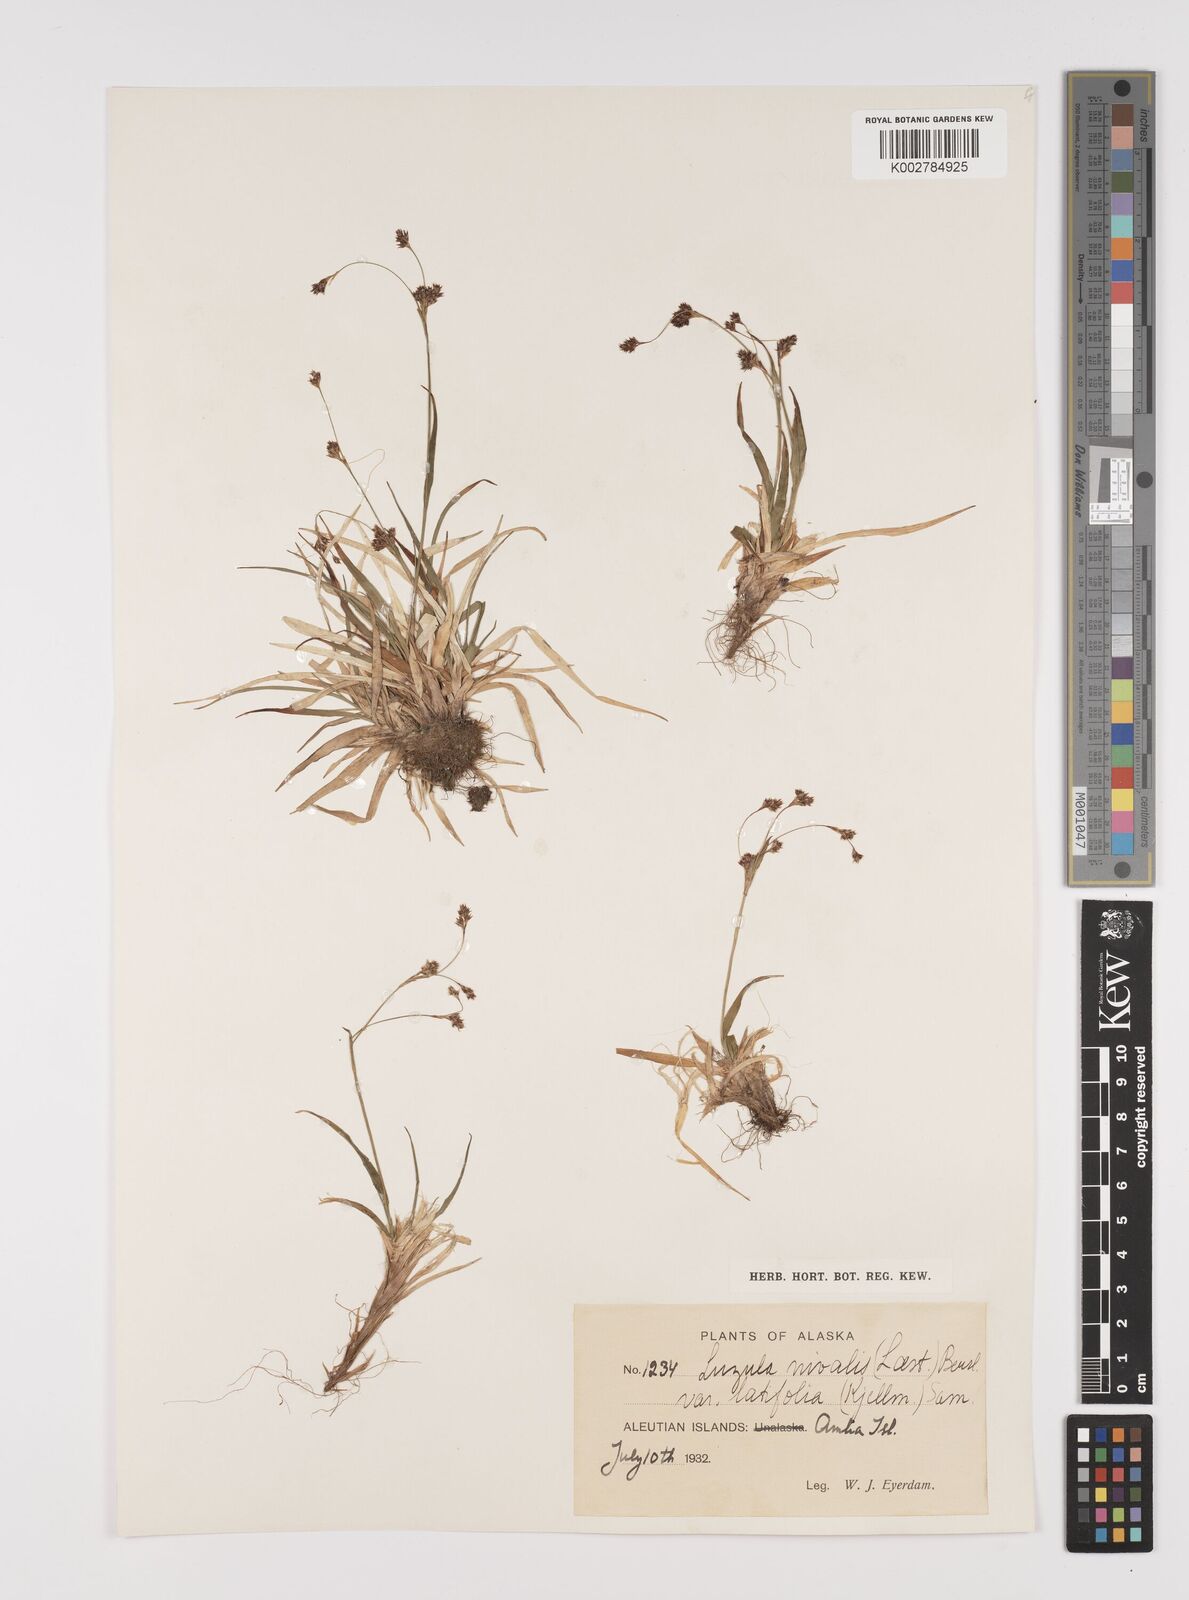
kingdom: Plantae
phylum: Tracheophyta
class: Liliopsida
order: Poales
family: Juncaceae
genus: Luzula
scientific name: Luzula nivalis
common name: Arctic woodrush
